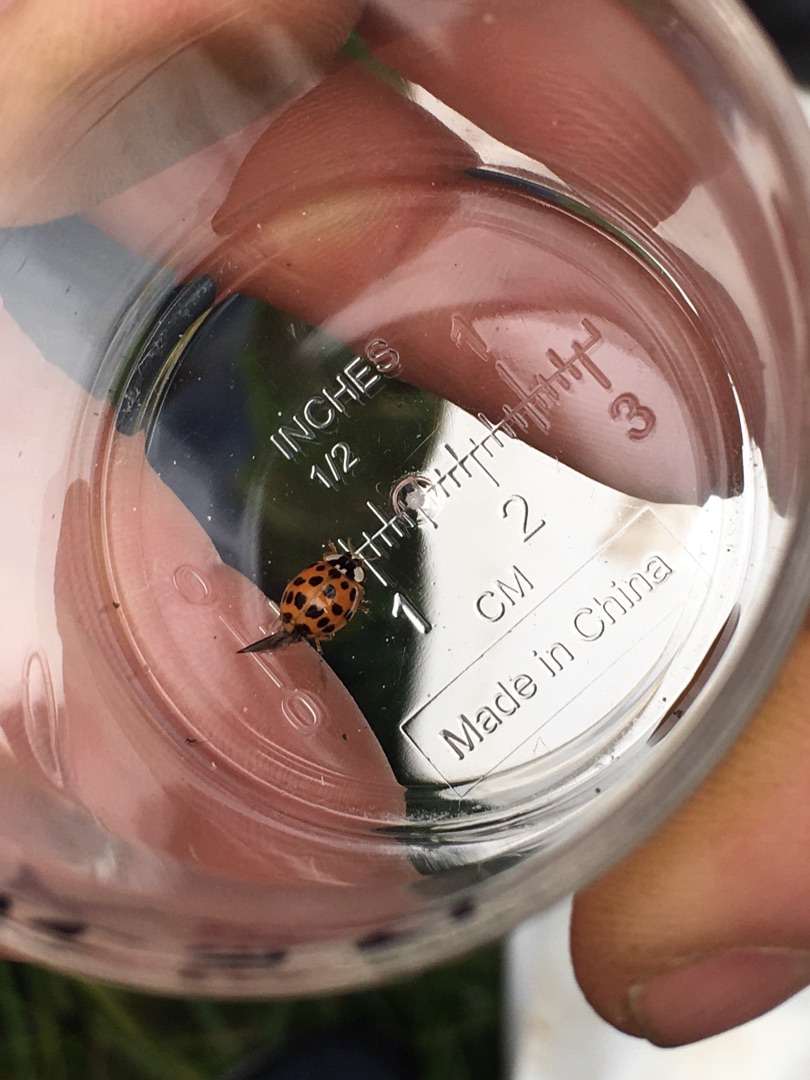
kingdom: Animalia
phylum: Arthropoda
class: Insecta
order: Coleoptera
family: Coccinellidae
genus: Harmonia
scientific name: Harmonia axyridis
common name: Harlekinmariehøne
